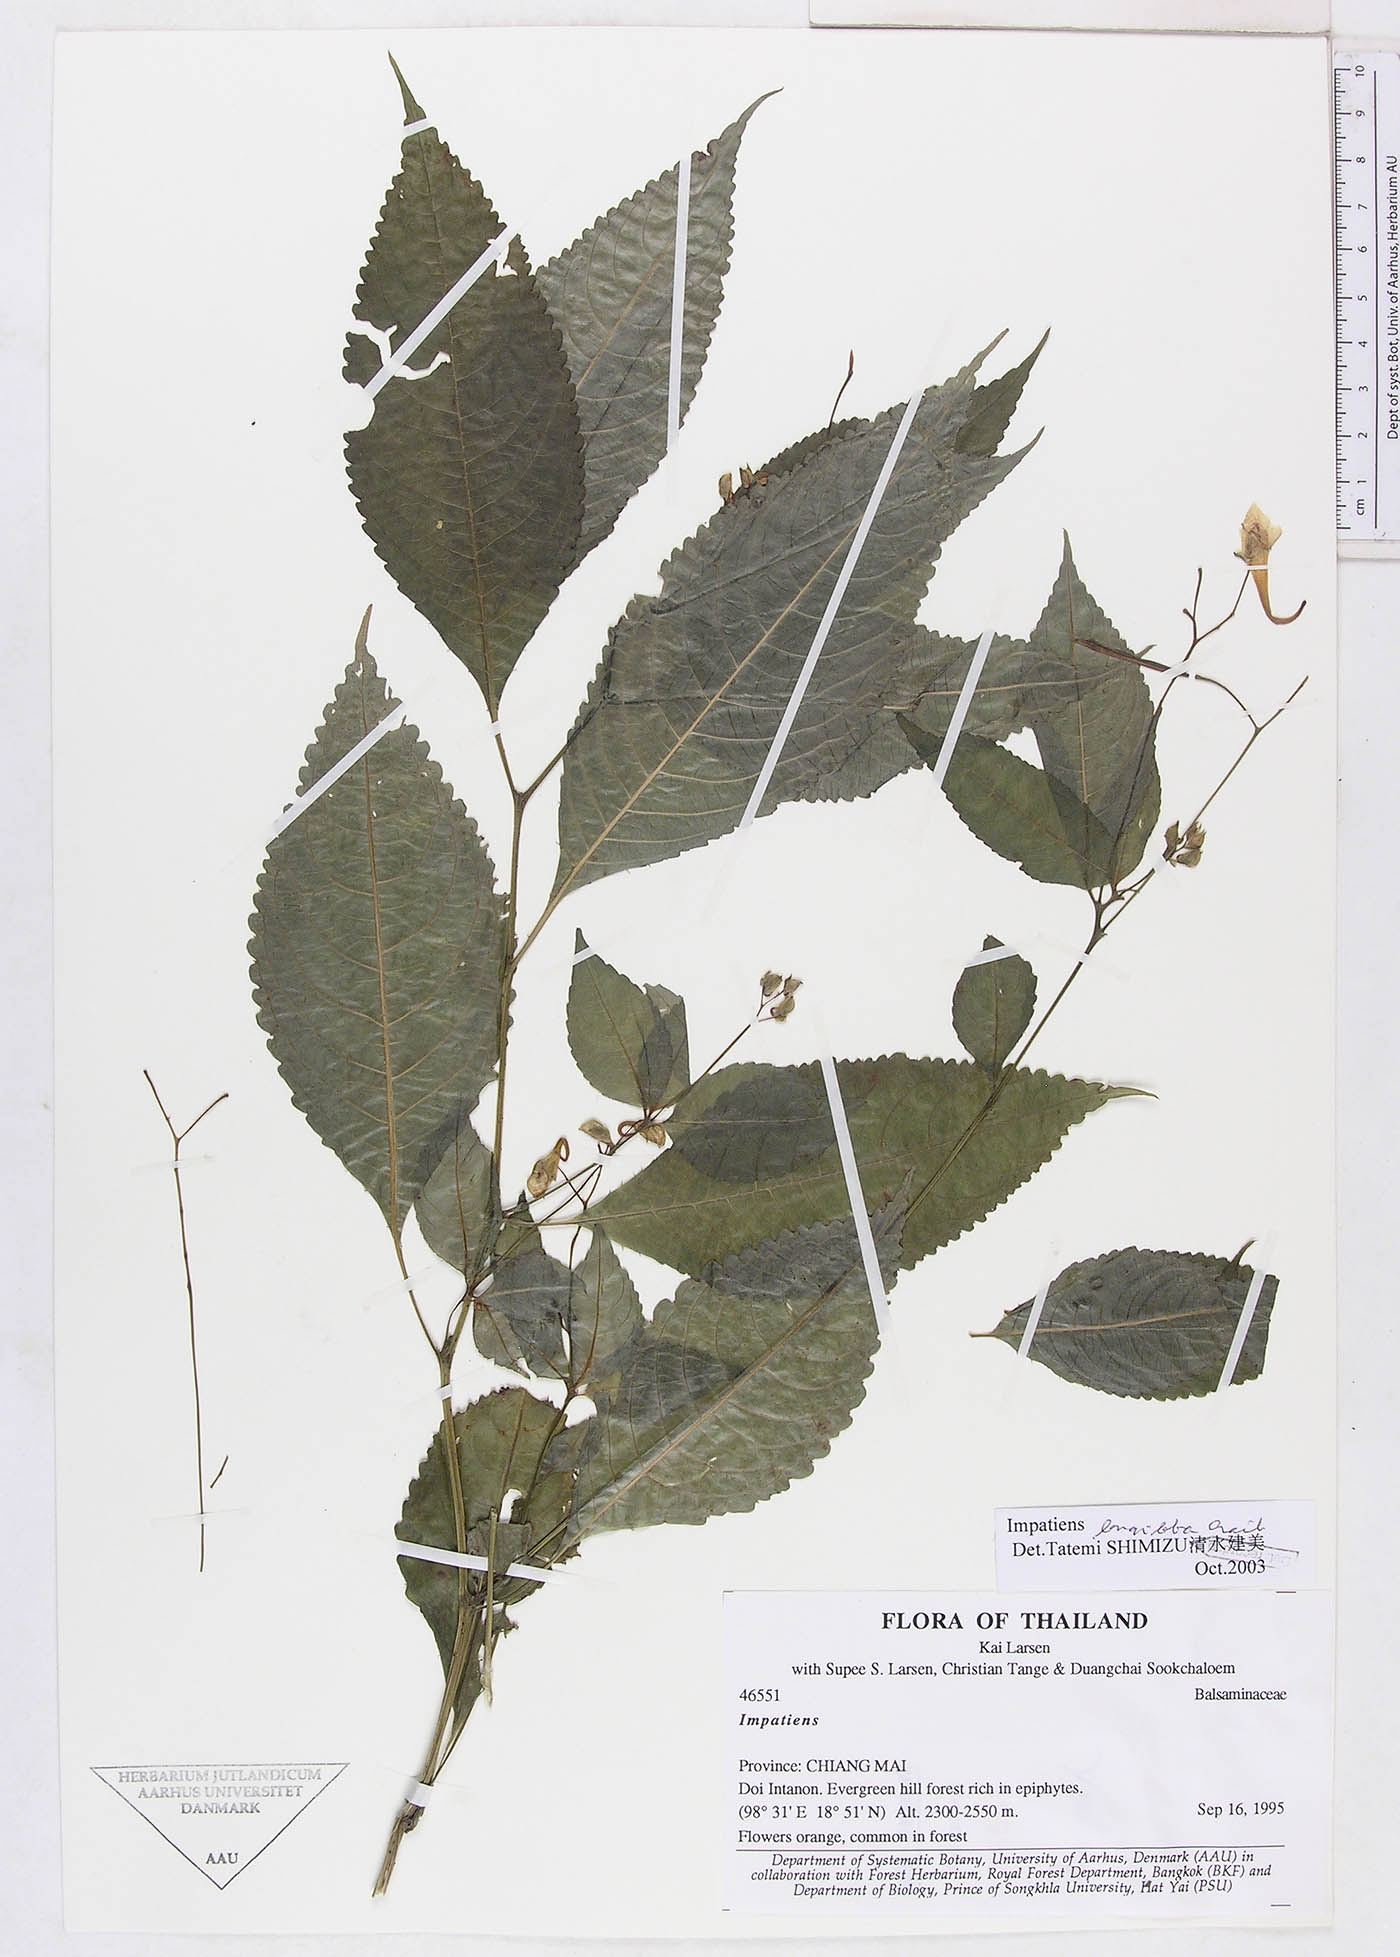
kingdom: Plantae
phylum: Tracheophyta
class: Magnoliopsida
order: Ericales
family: Balsaminaceae
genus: Impatiens
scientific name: Impatiens longiloba
